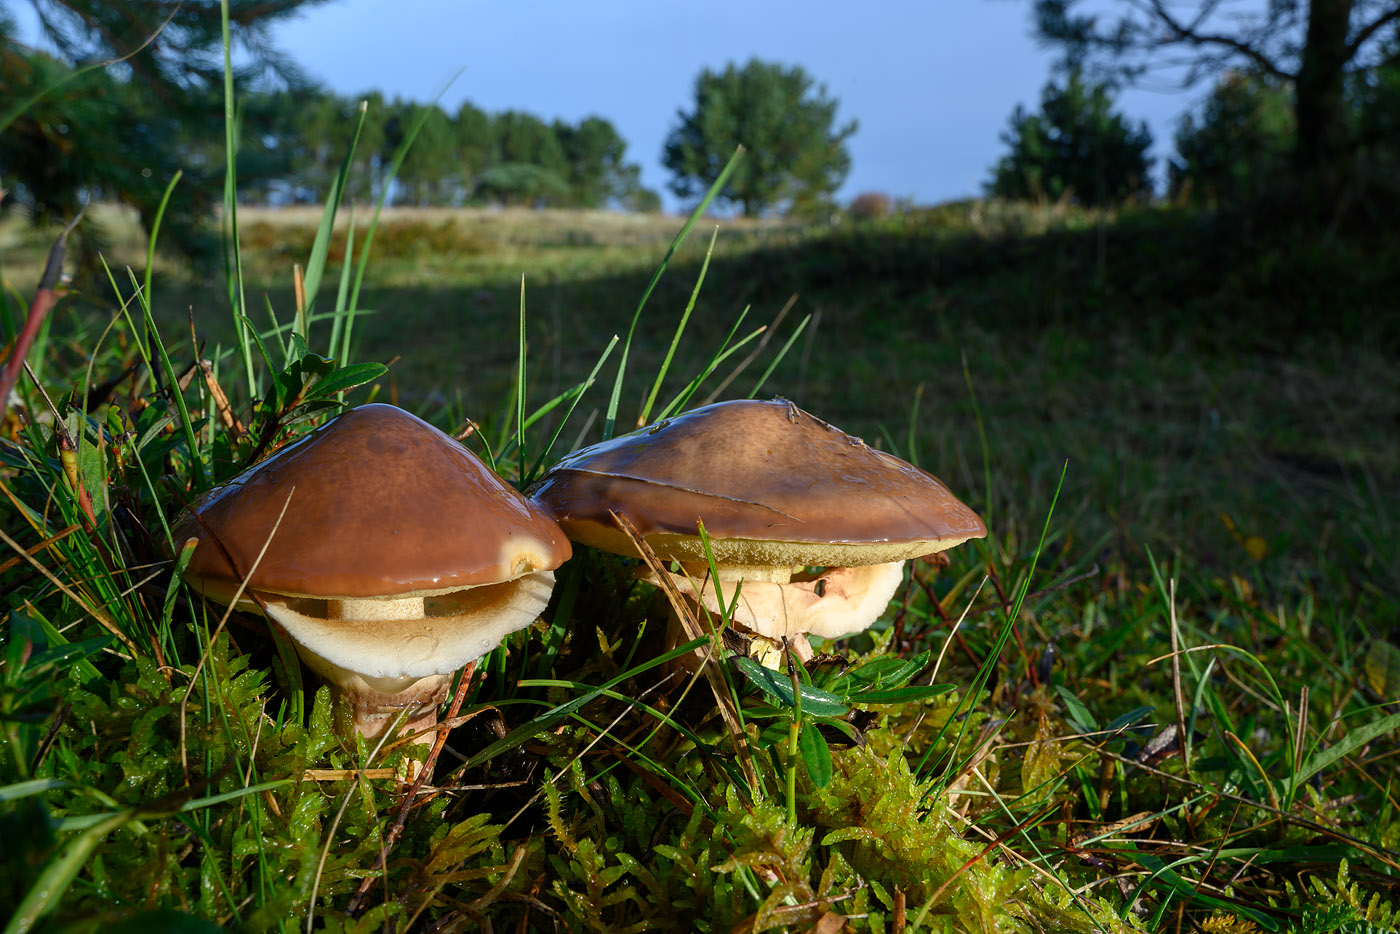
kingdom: Fungi
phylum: Basidiomycota
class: Agaricomycetes
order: Boletales
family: Suillaceae
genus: Suillus
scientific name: Suillus luteus
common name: brungul slimrørhat
